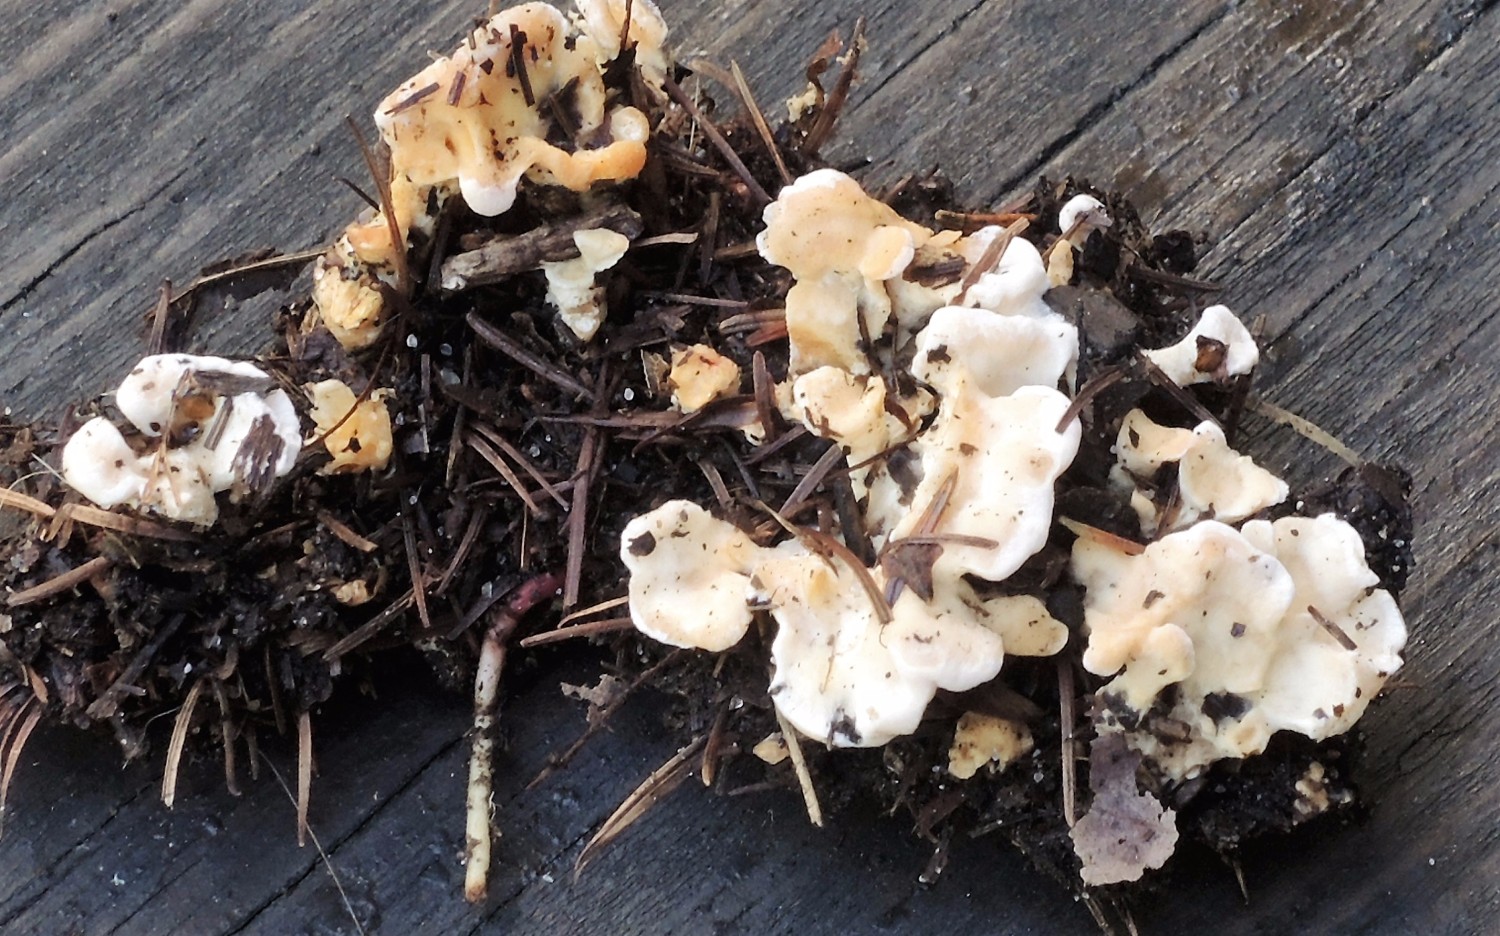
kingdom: Fungi
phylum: Basidiomycota
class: Agaricomycetes
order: Cantharellales
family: Hydnaceae
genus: Sistotrema
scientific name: Sistotrema confluens
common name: stilket kroneskorpe
